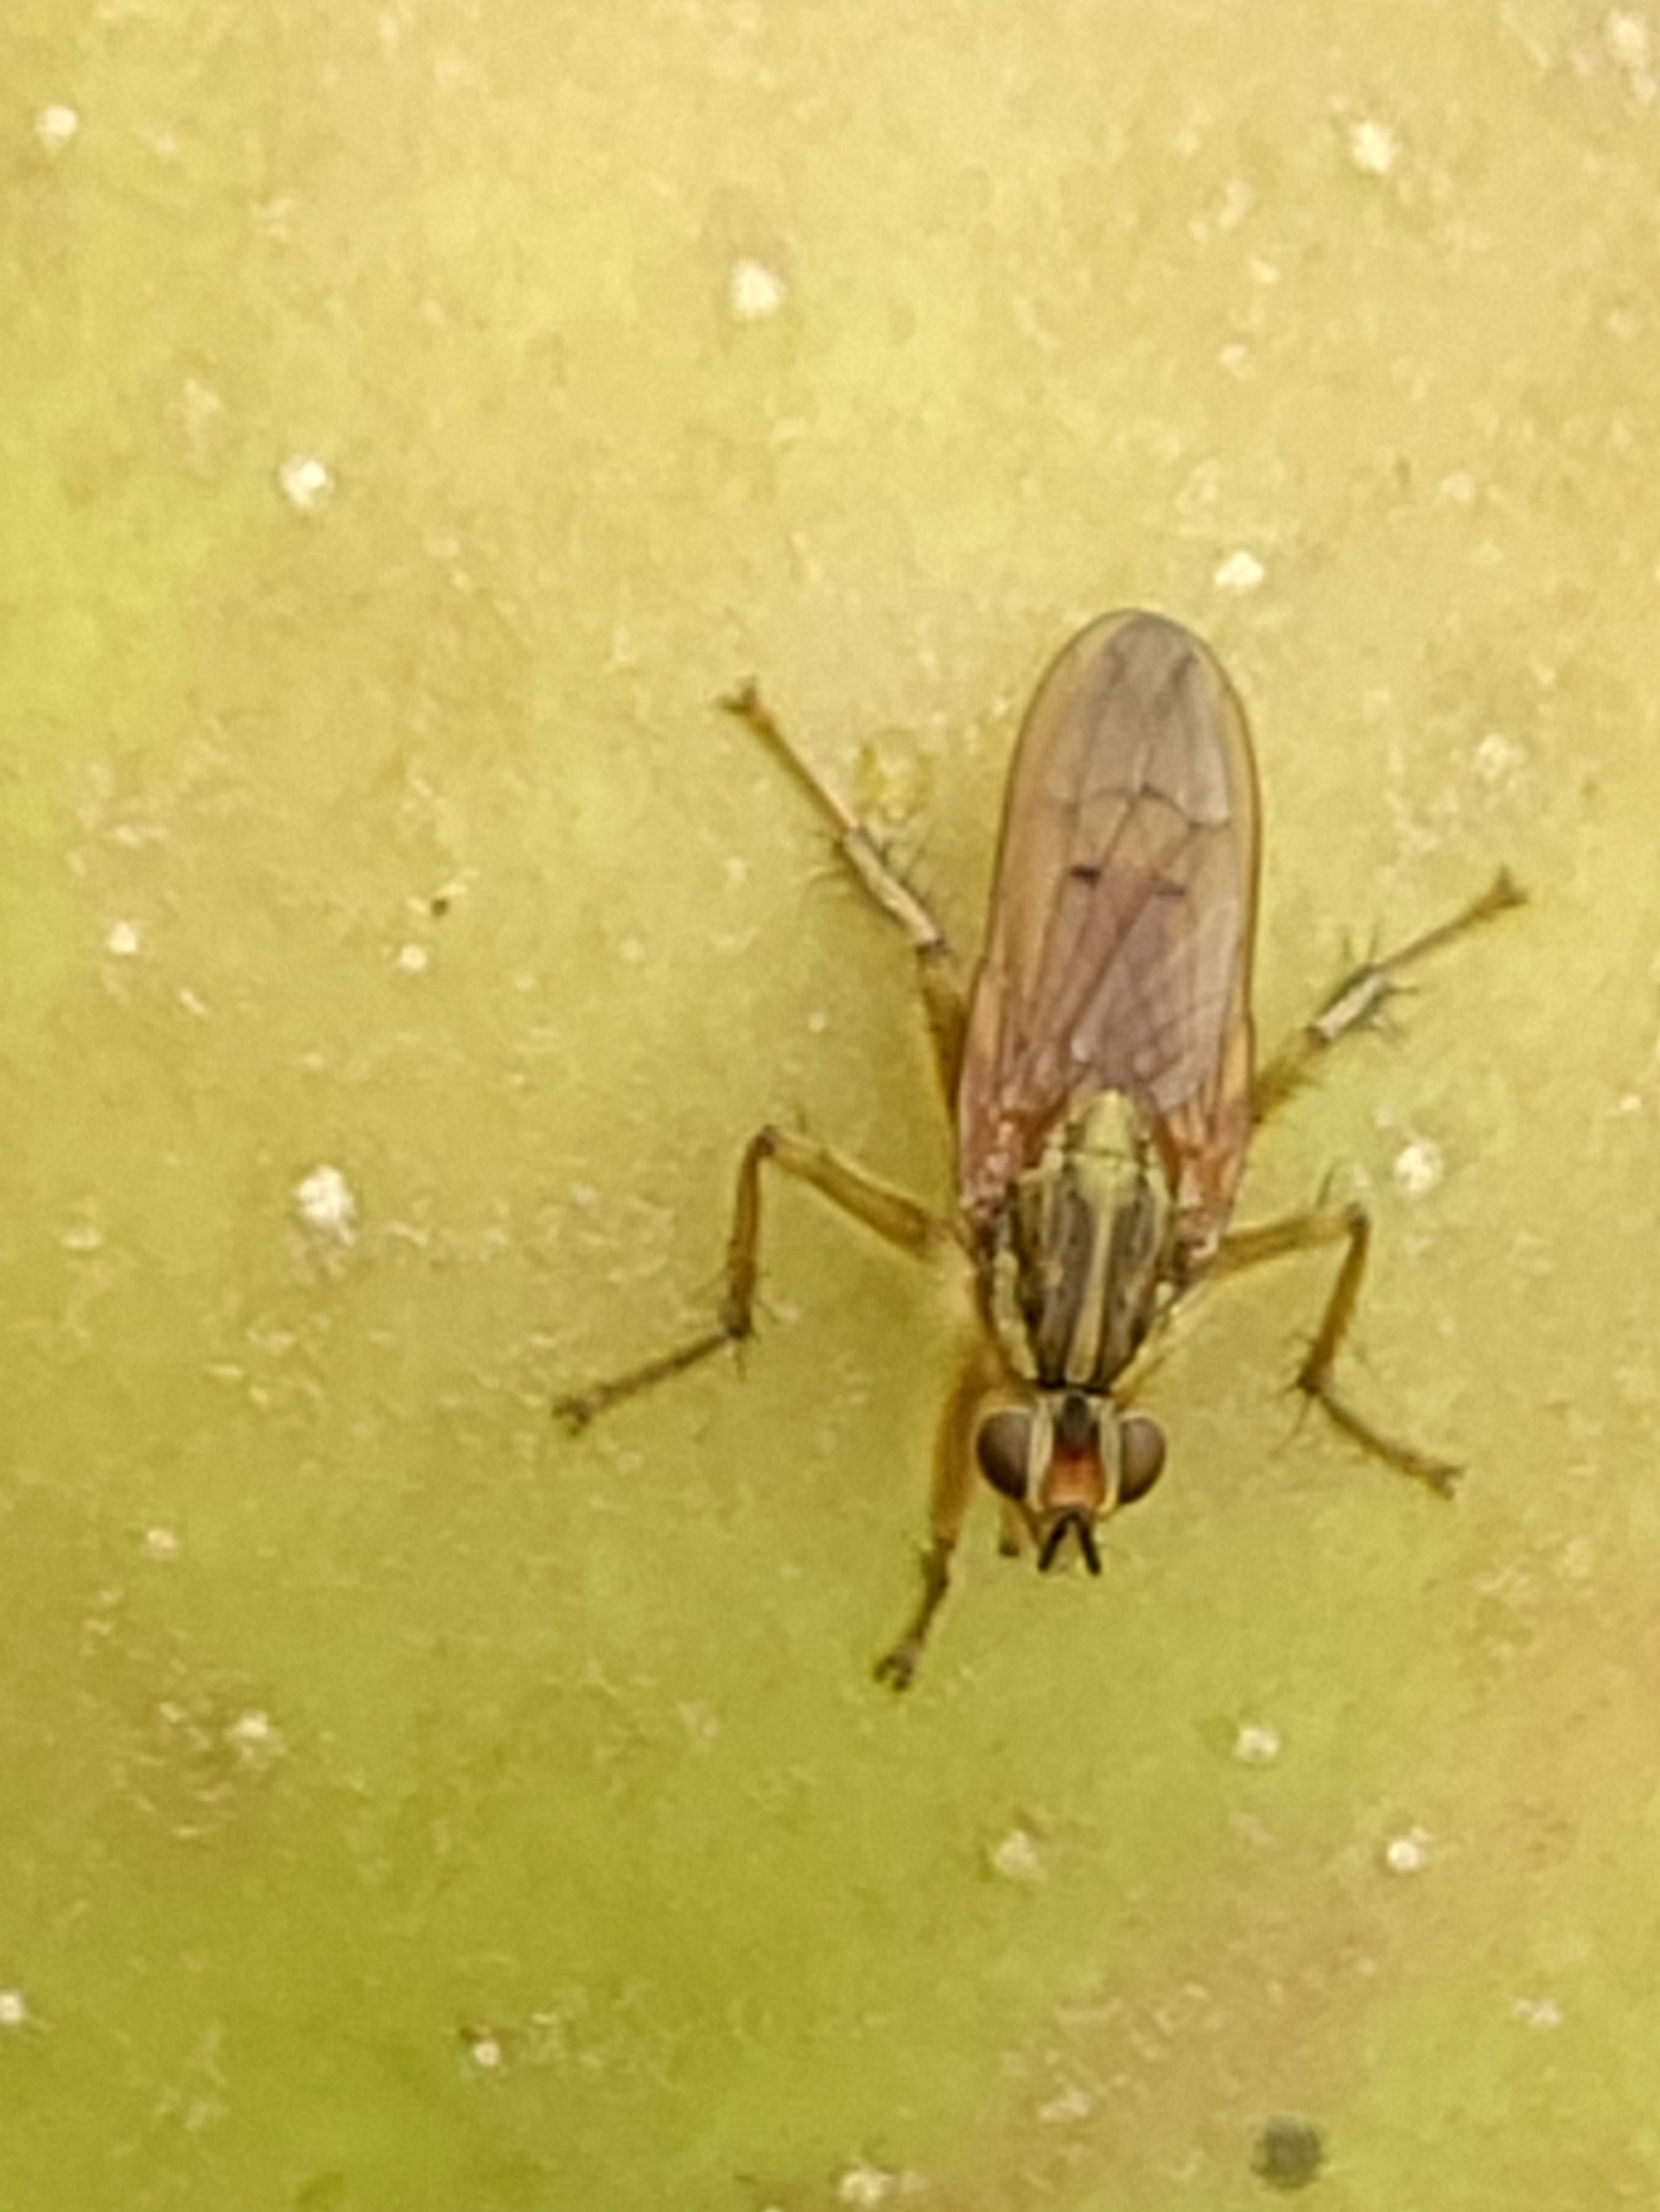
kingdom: Animalia
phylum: Arthropoda
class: Insecta
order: Diptera
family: Scathophagidae
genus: Scathophaga
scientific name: Scathophaga stercoraria
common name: Almindelig gødningsflue
